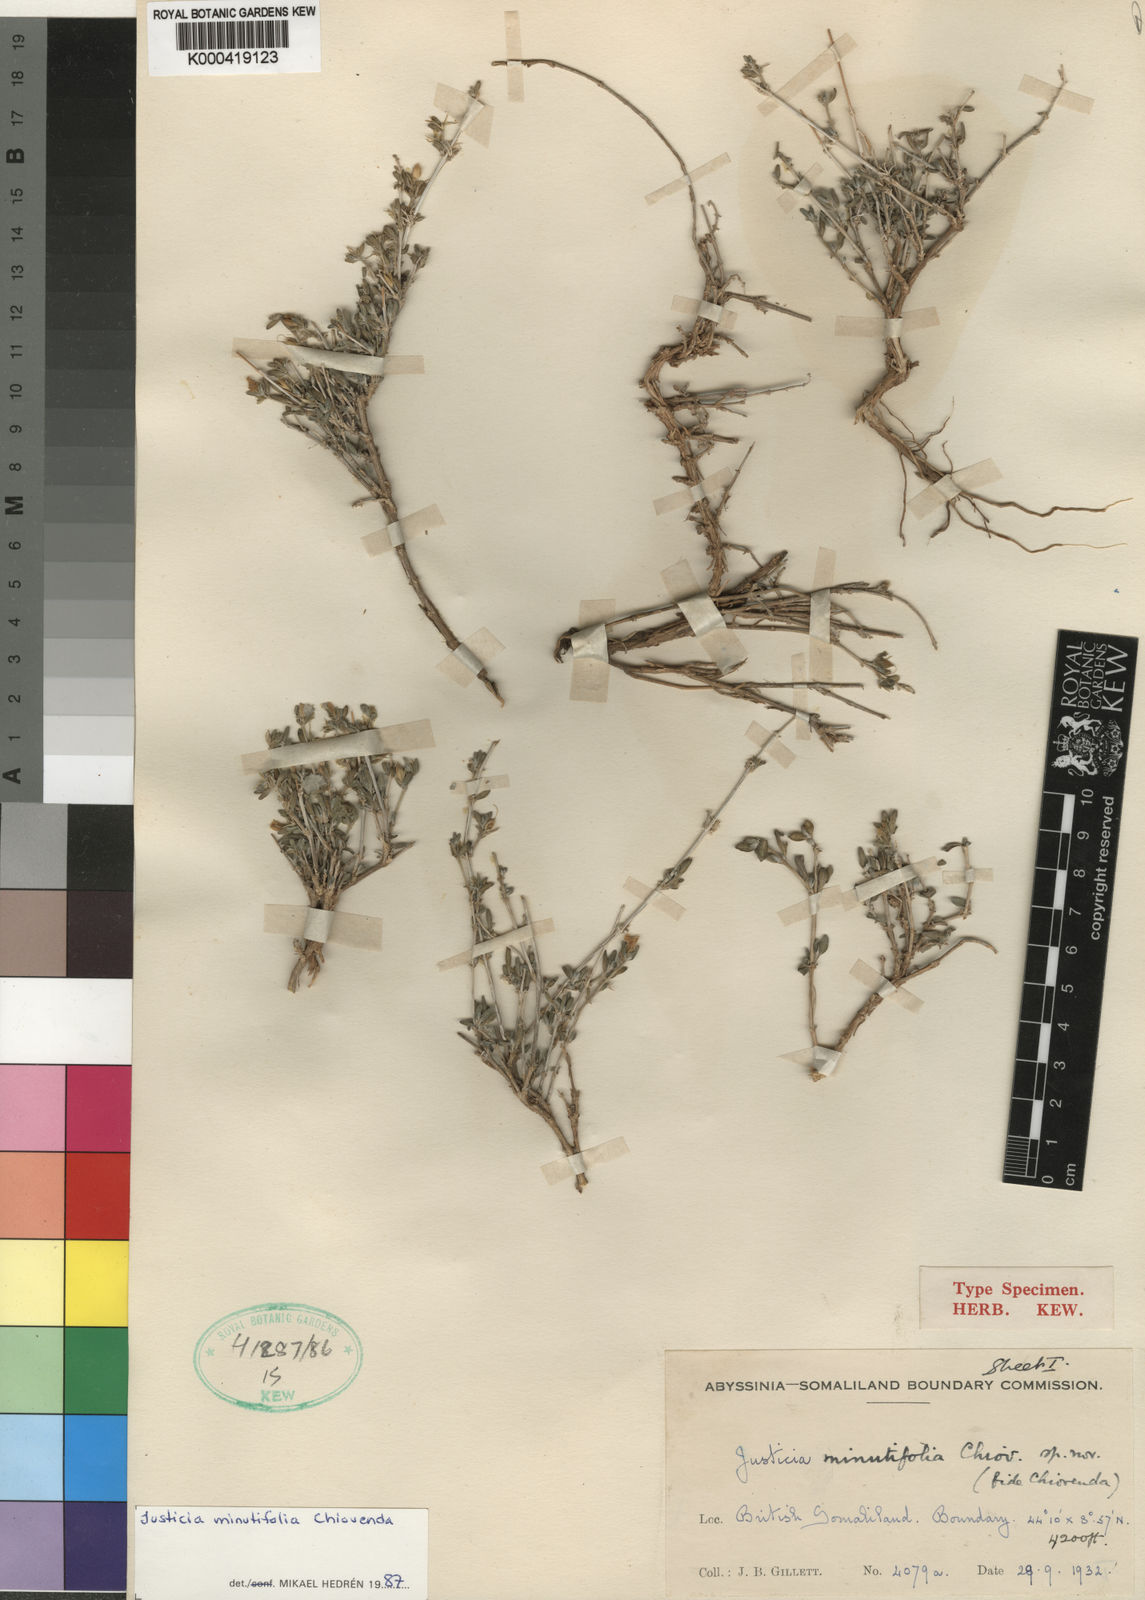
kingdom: Plantae
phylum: Tracheophyta
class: Magnoliopsida
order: Lamiales
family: Acanthaceae
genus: Justicia
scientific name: Justicia minutifolia
